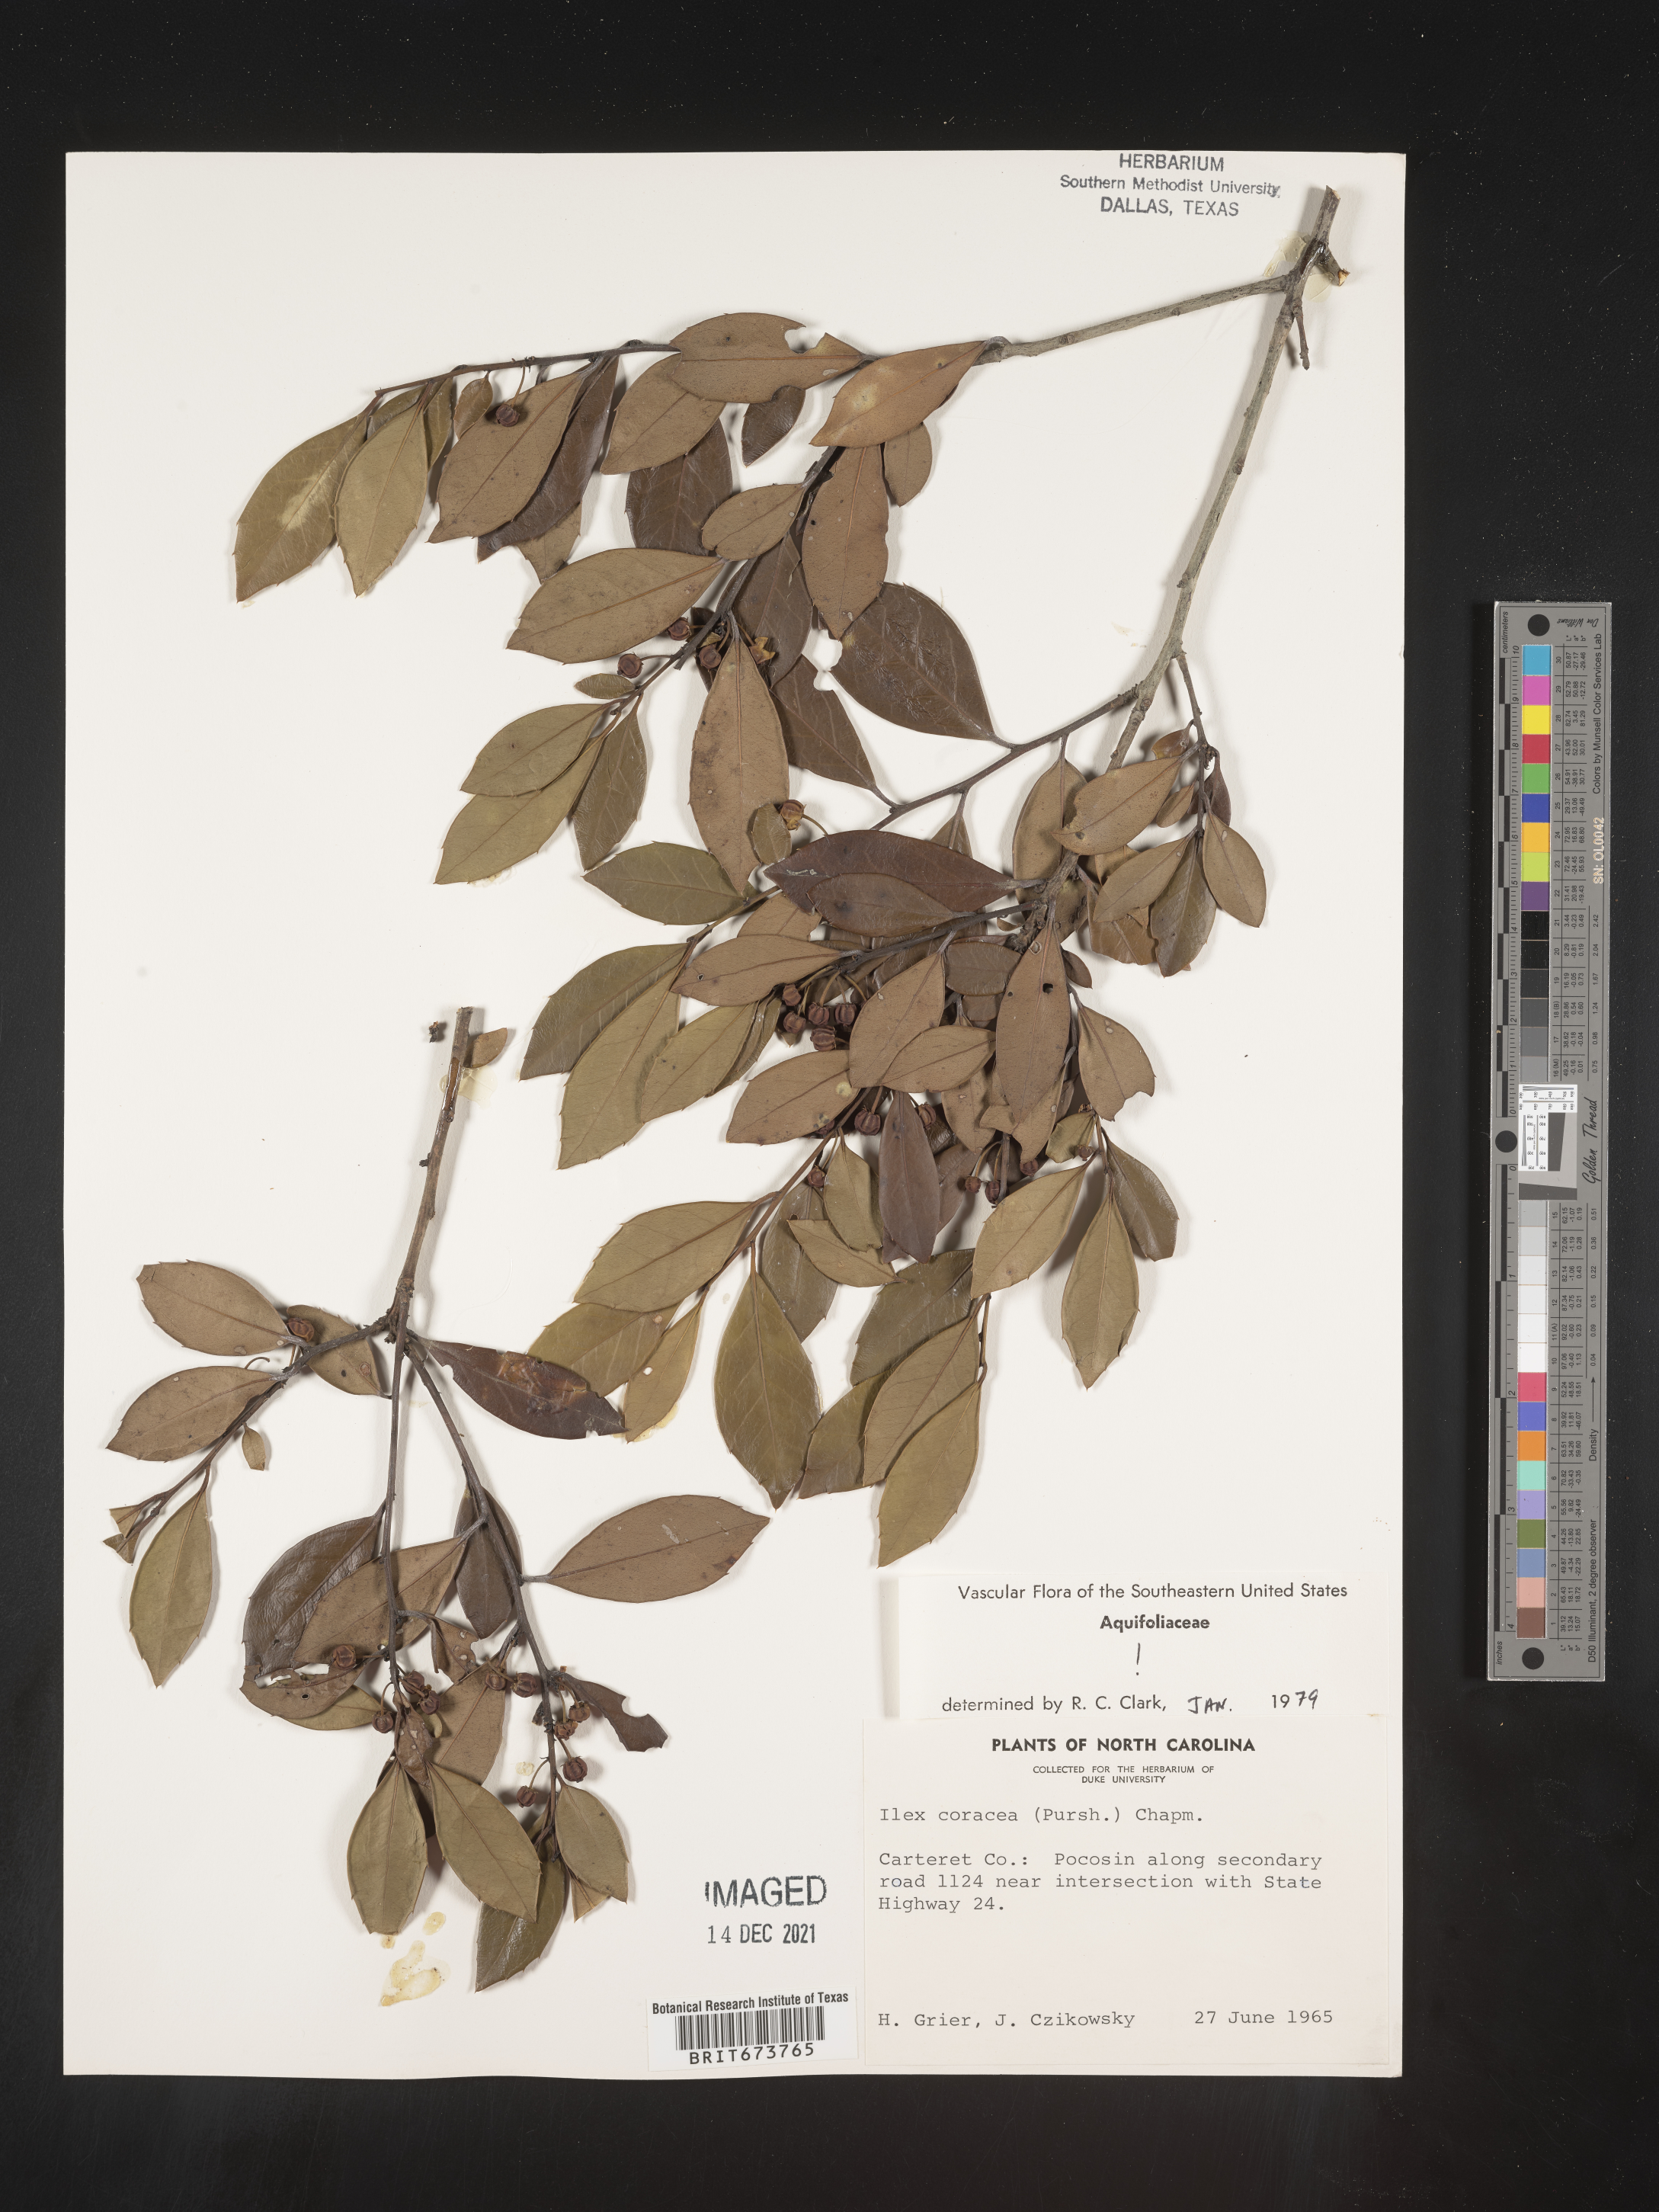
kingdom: Plantae
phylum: Tracheophyta
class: Magnoliopsida
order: Aquifoliales
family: Aquifoliaceae
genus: Ilex
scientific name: Ilex coriacea
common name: Sweet gallberry
